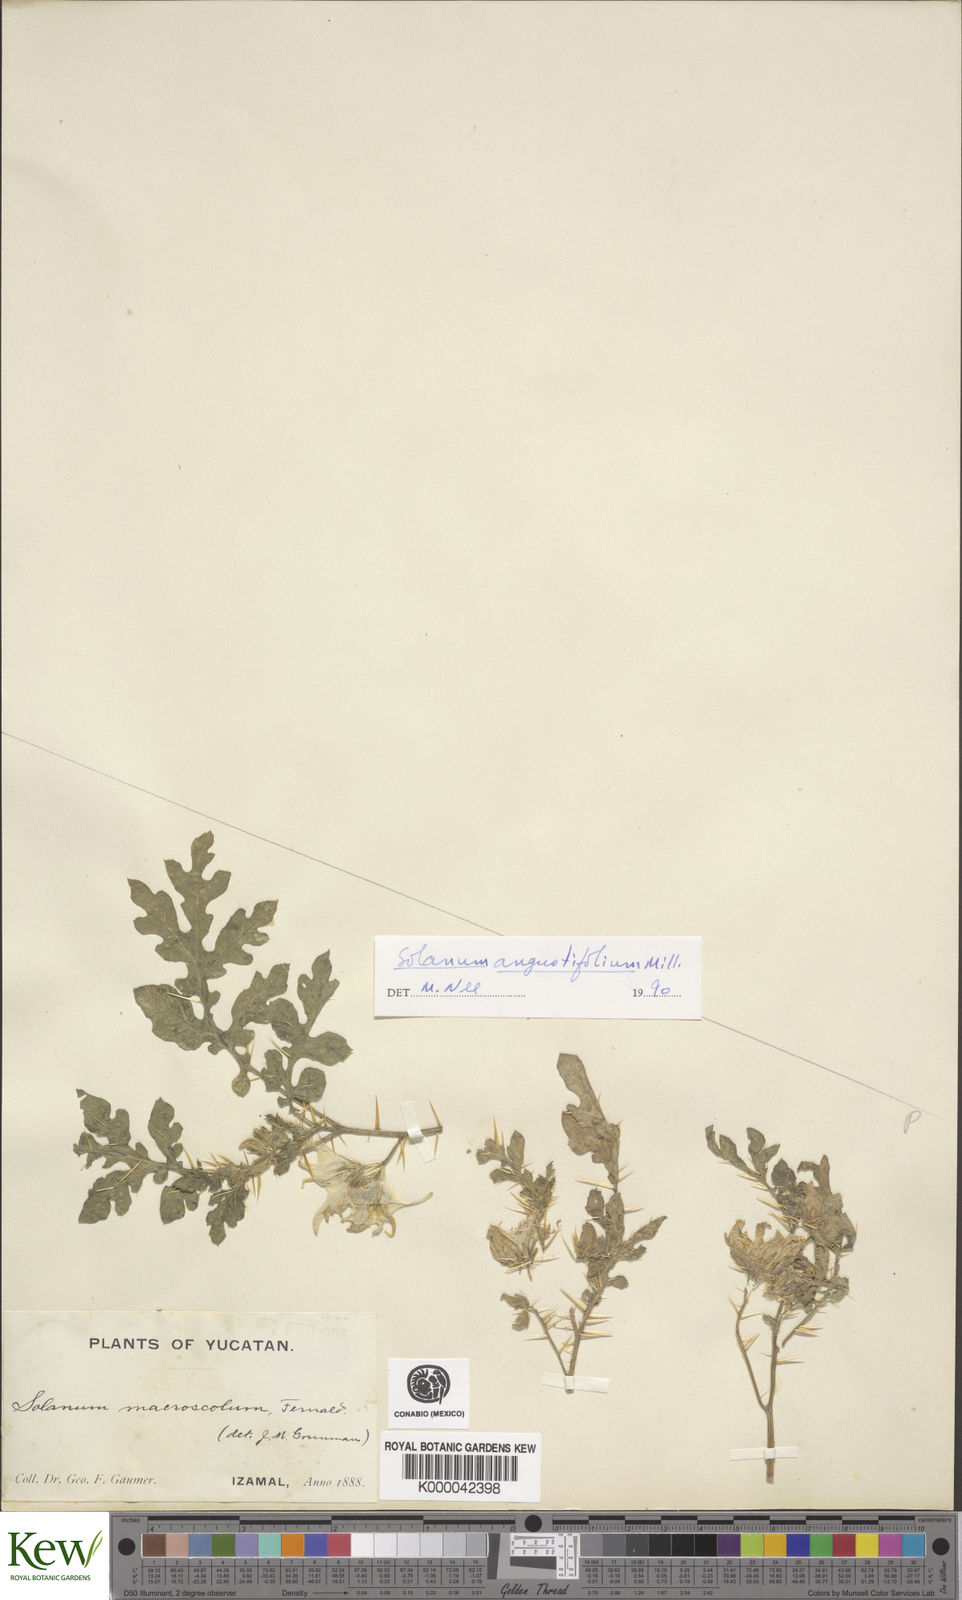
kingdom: Plantae
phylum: Tracheophyta
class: Magnoliopsida
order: Solanales
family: Solanaceae
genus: Solanum
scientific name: Solanum angustifolium
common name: Buffalobur nightshade
